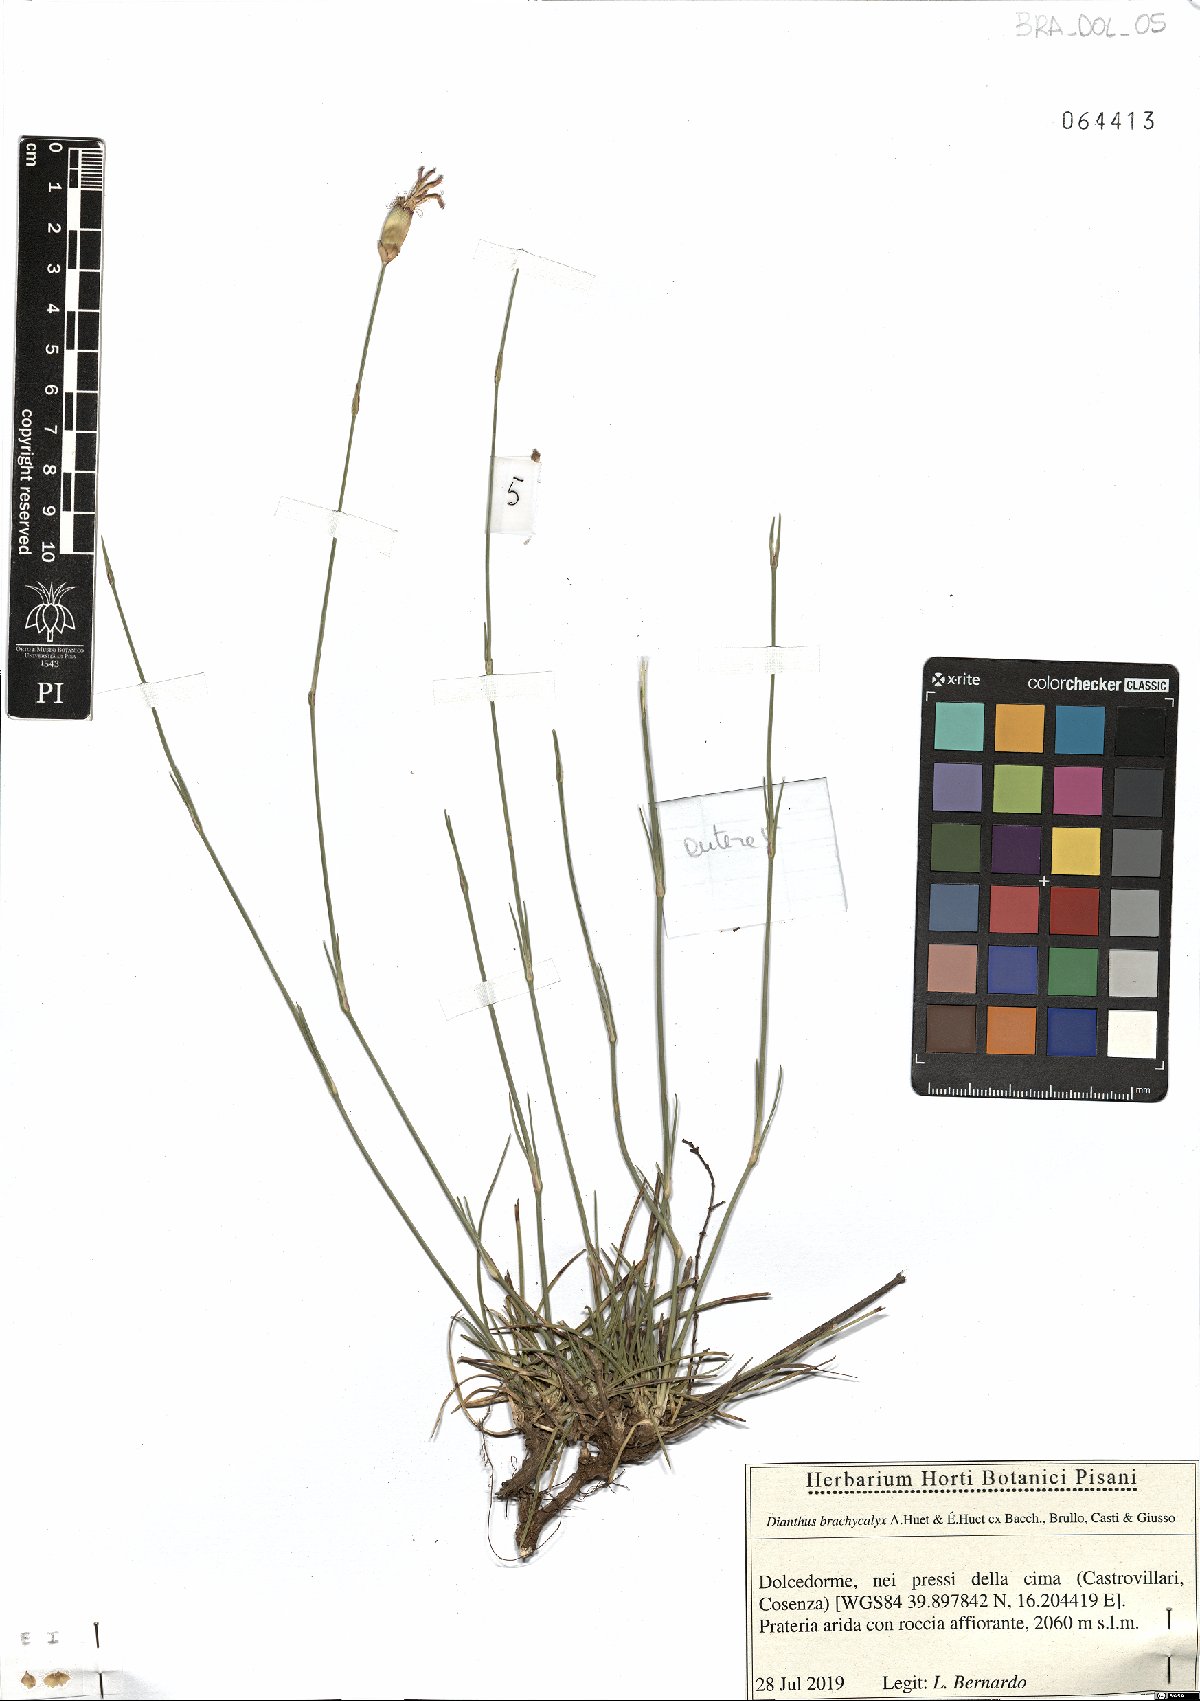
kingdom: Plantae
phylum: Tracheophyta
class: Magnoliopsida
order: Caryophyllales
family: Caryophyllaceae
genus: Dianthus
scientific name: Dianthus brachycalyx
